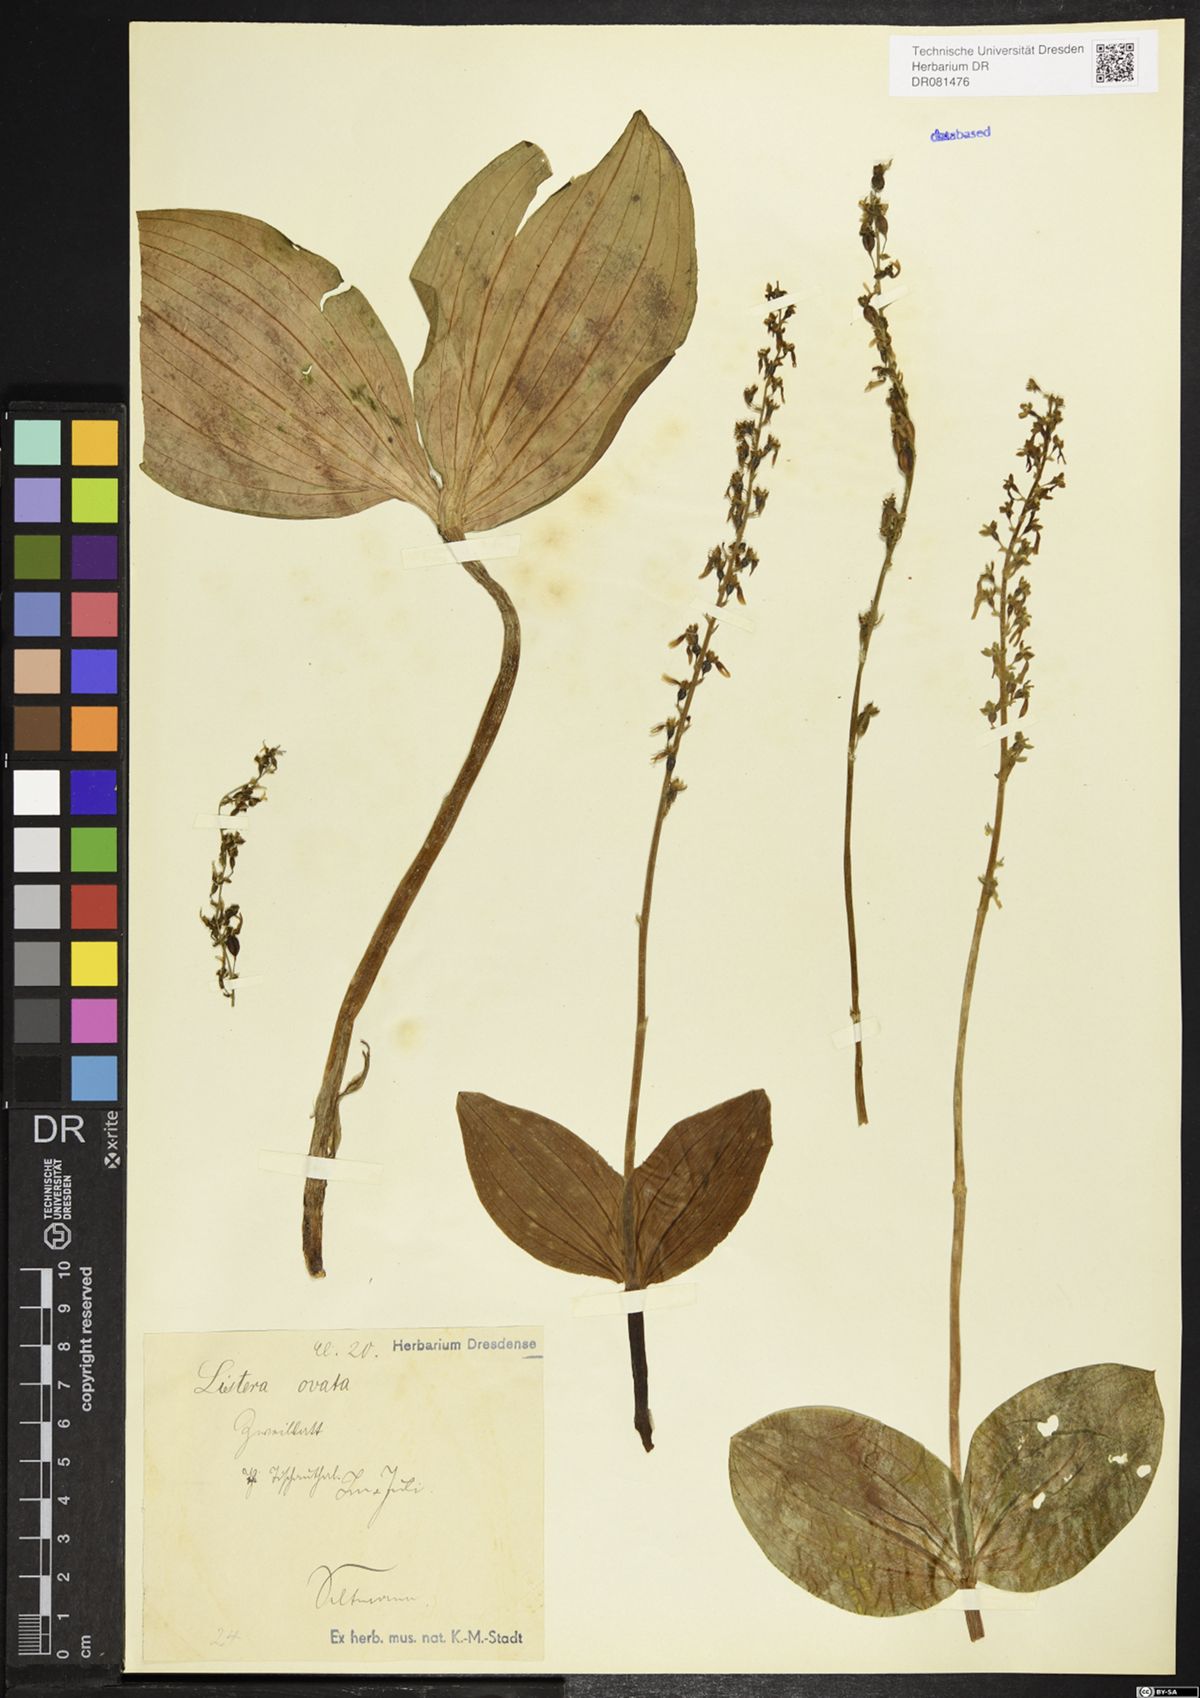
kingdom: Plantae
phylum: Tracheophyta
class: Liliopsida
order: Asparagales
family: Orchidaceae
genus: Neottia
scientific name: Neottia ovata
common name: Common twayblade
